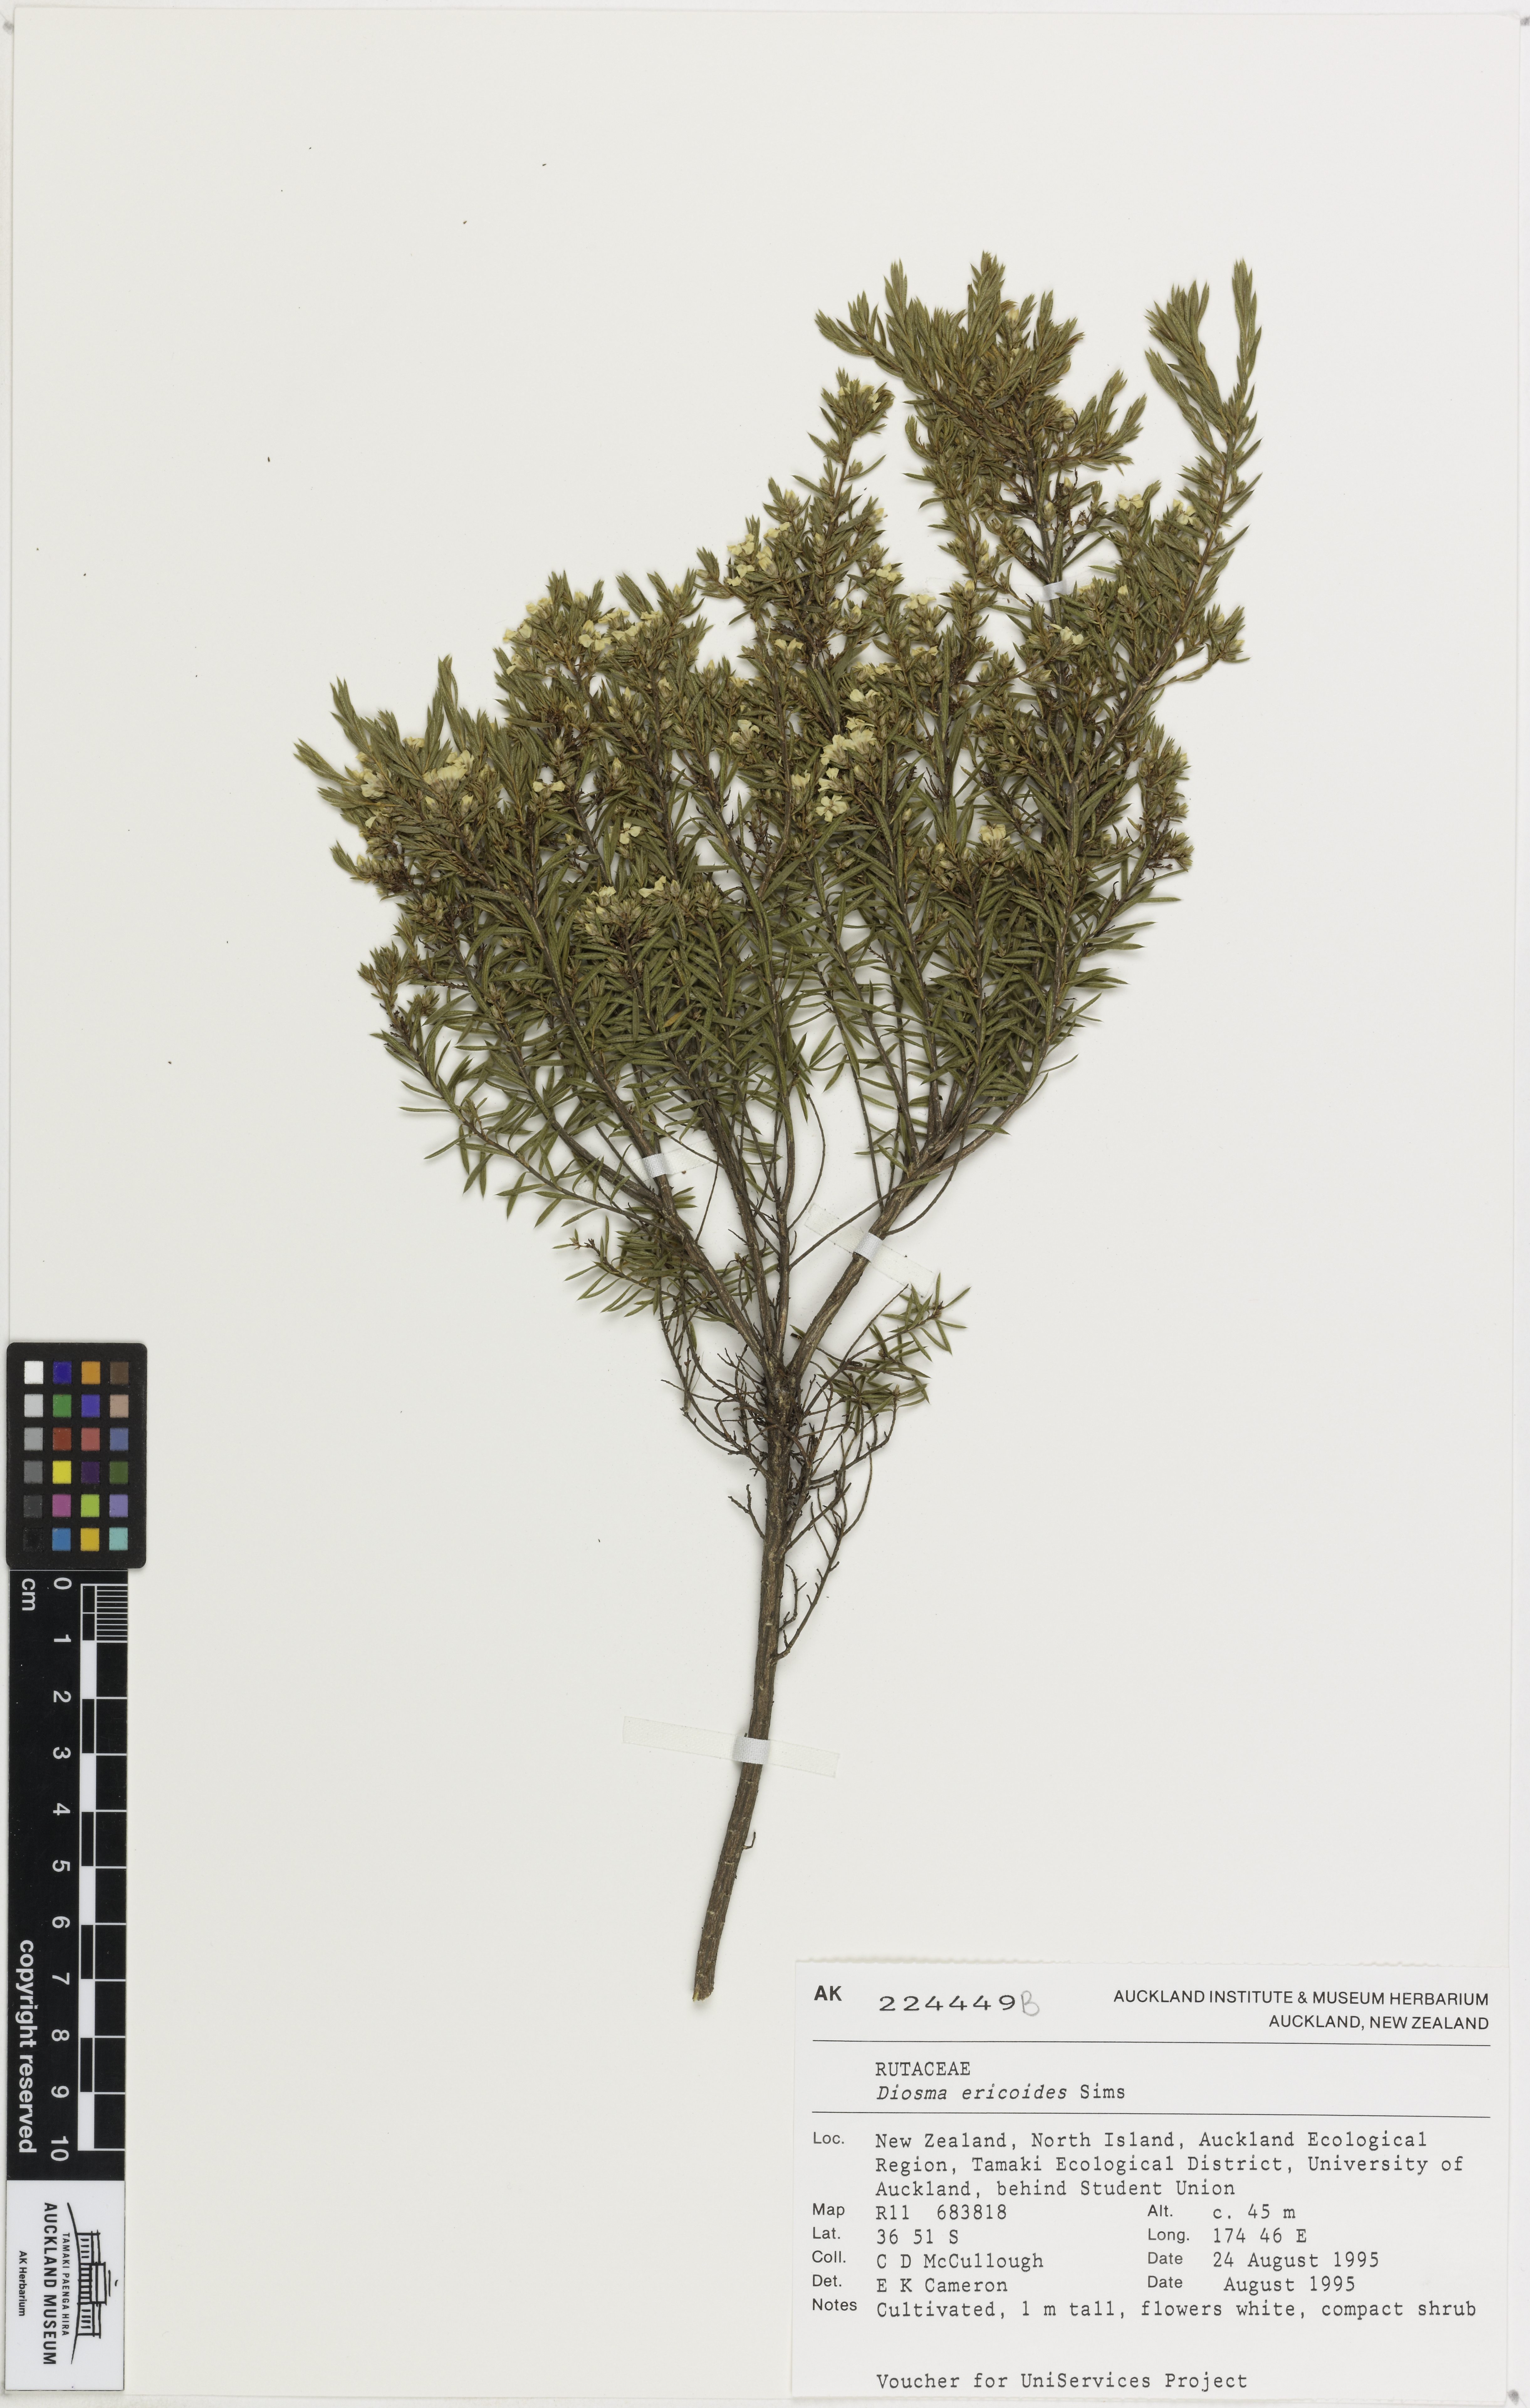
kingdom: Plantae
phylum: Tracheophyta
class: Magnoliopsida
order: Sapindales
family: Rutaceae
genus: Diosma
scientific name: Diosma hirsuta
